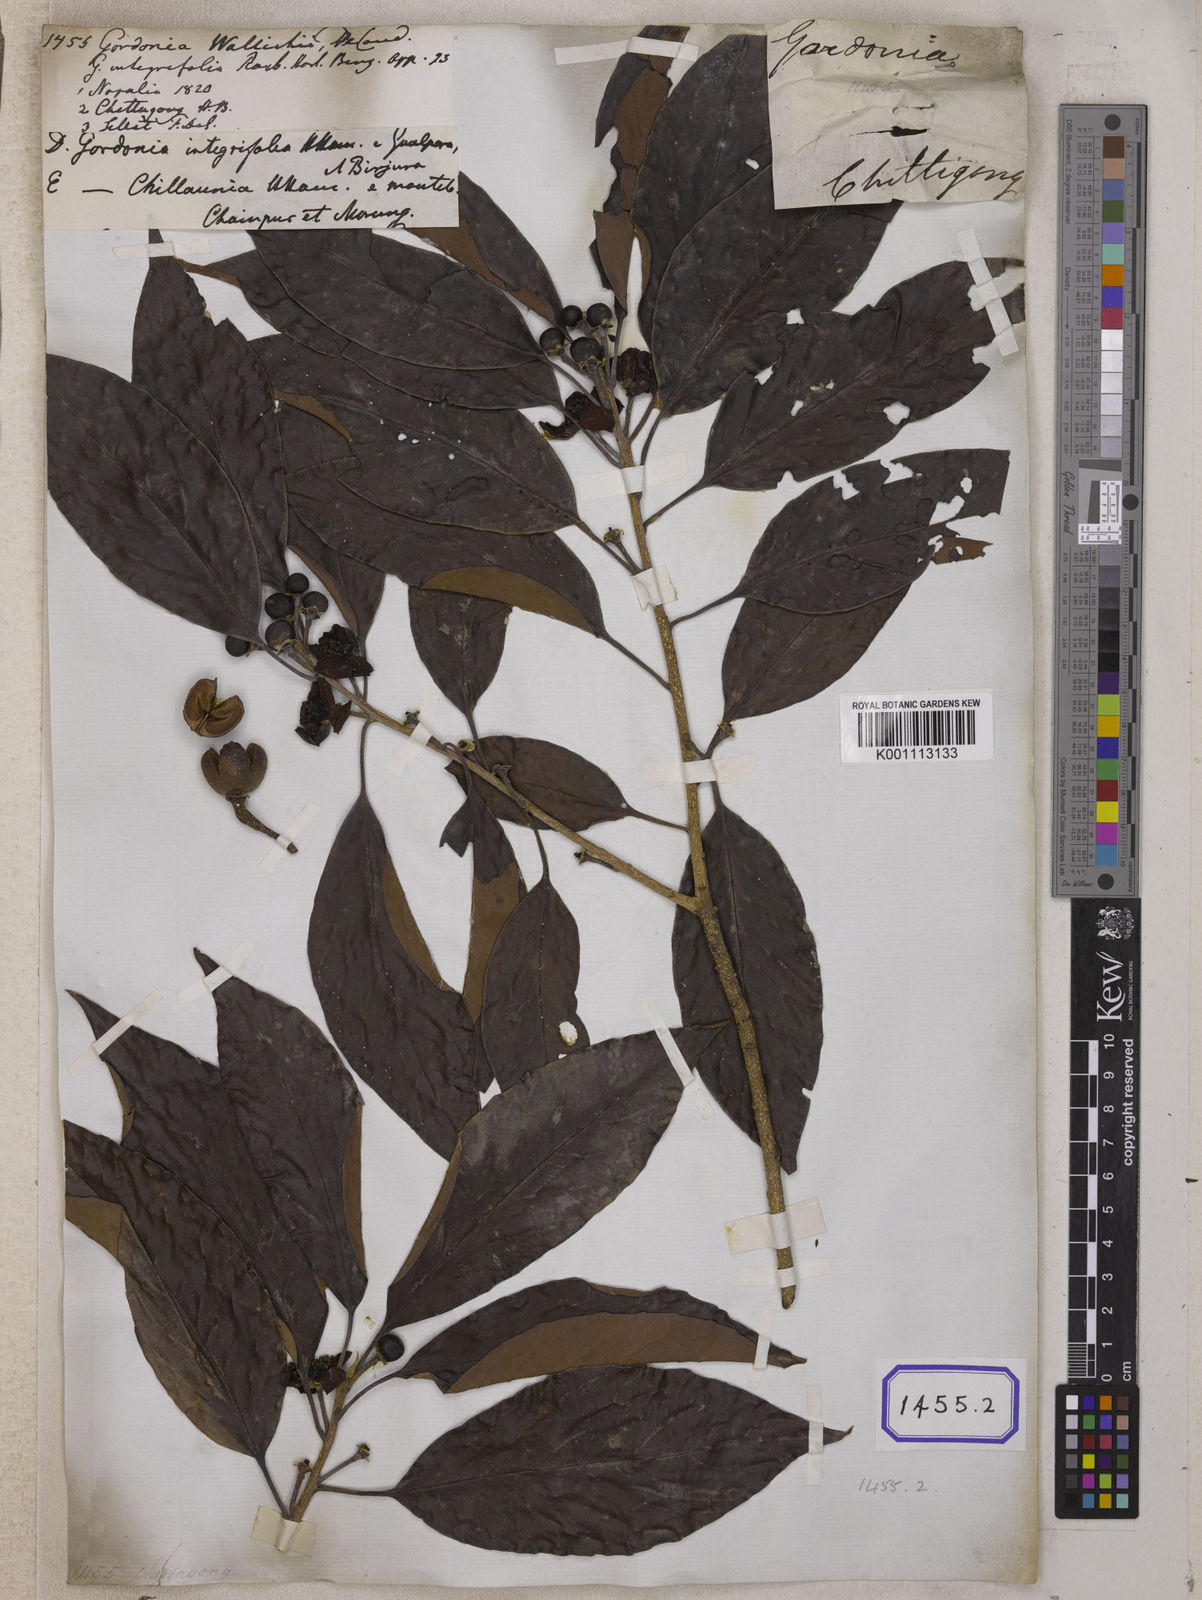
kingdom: Plantae
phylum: Tracheophyta
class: Magnoliopsida
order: Ericales
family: Theaceae
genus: Schima
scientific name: Schima wallichii
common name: Schima
